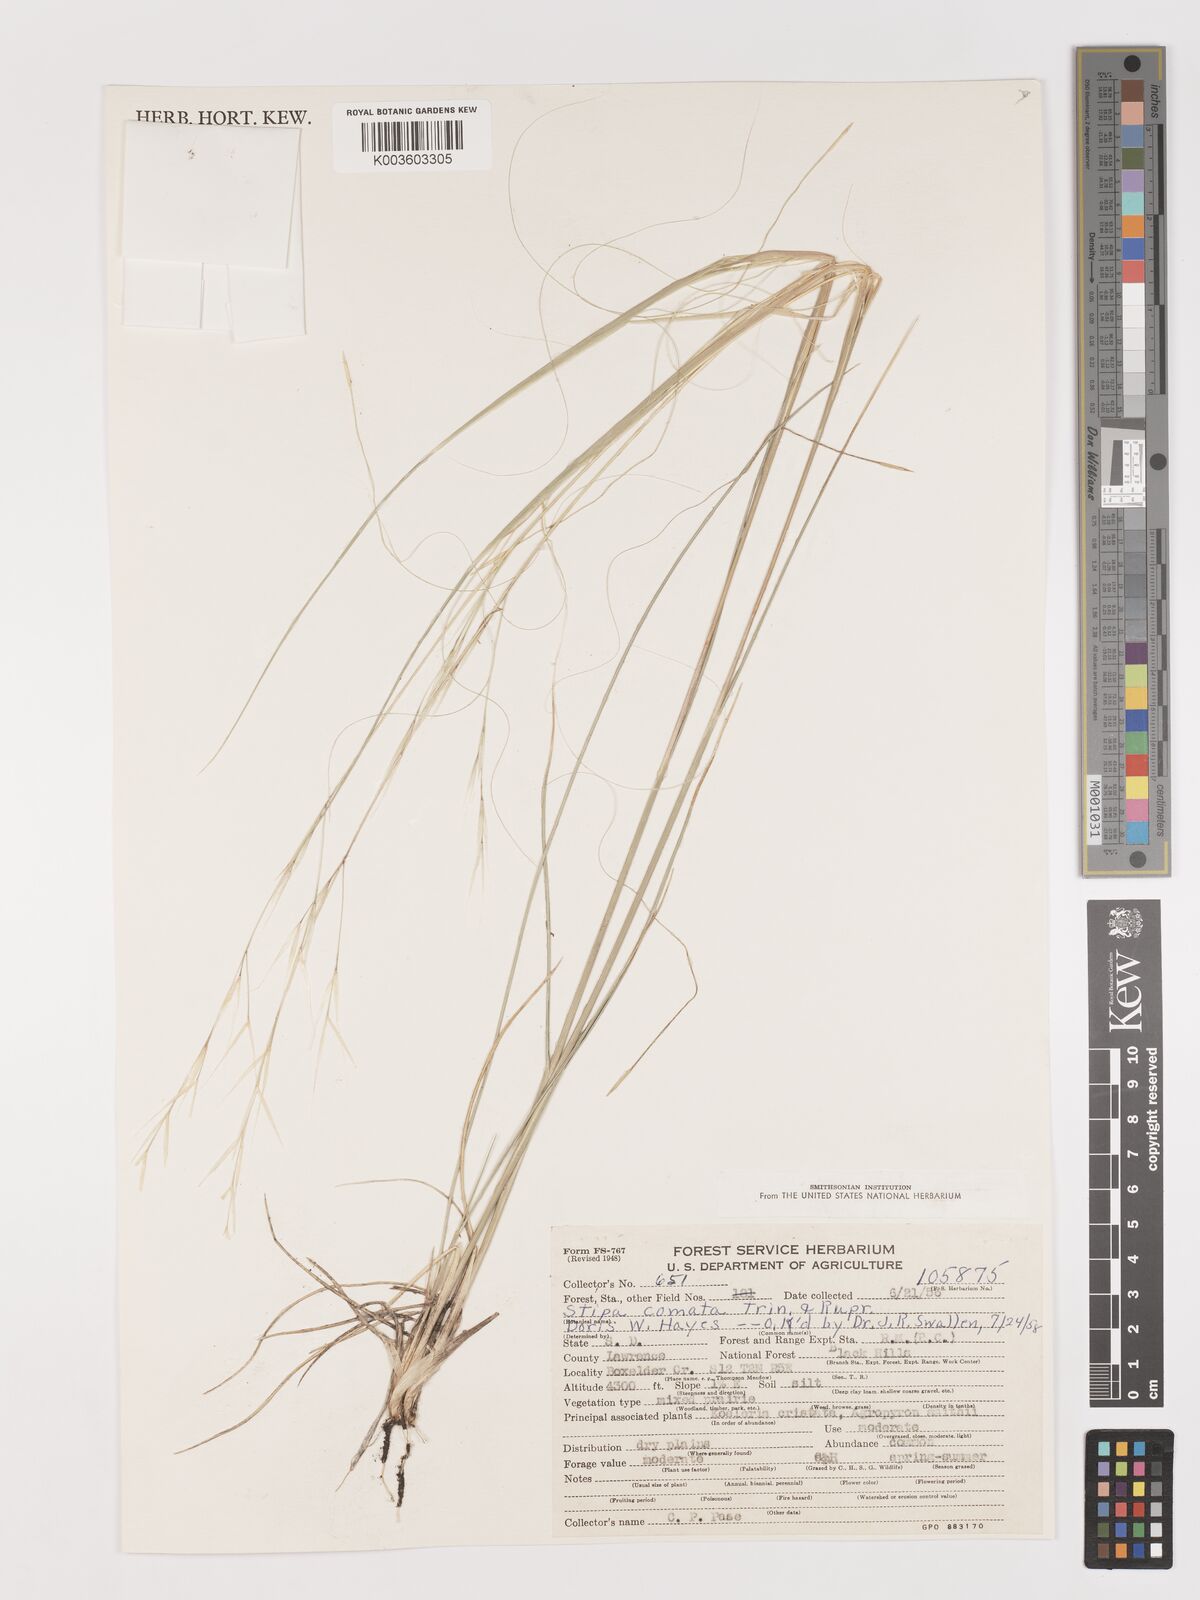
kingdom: Plantae
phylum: Tracheophyta
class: Liliopsida
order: Poales
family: Poaceae
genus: Stipa
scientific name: Stipa
